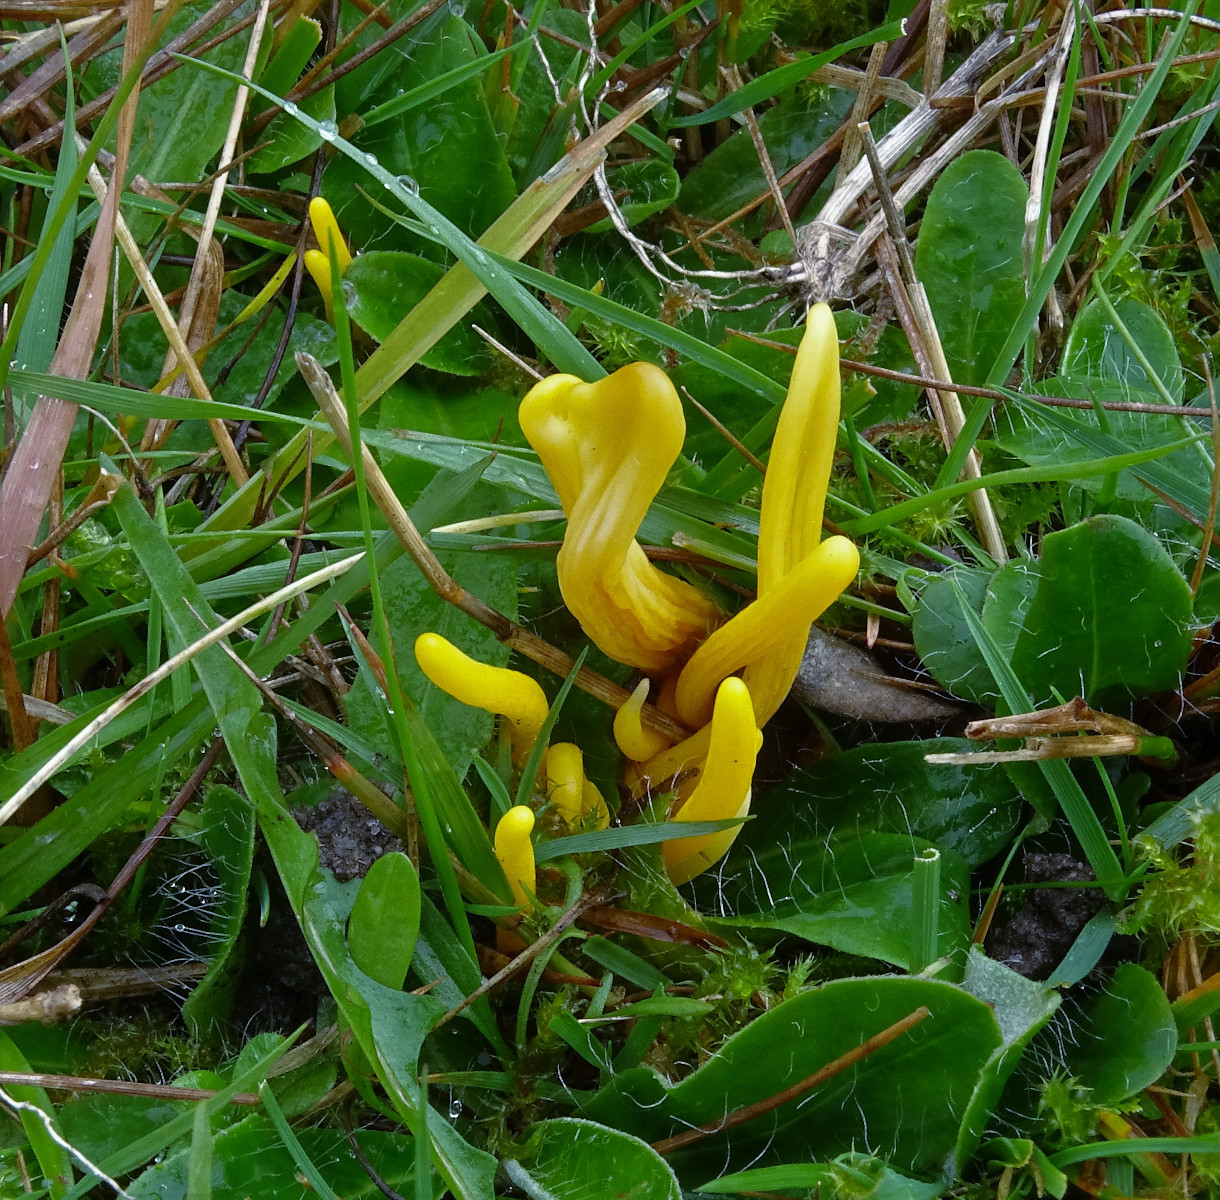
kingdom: Fungi
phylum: Basidiomycota
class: Agaricomycetes
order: Agaricales
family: Clavariaceae
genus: Clavulinopsis
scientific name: Clavulinopsis helvola
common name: orangegul køllesvamp
